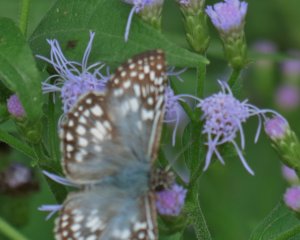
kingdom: Animalia
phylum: Arthropoda
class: Insecta
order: Lepidoptera
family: Hesperiidae
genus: Pyrgus
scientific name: Pyrgus oileus
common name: Tropical Checkered-Skipper
